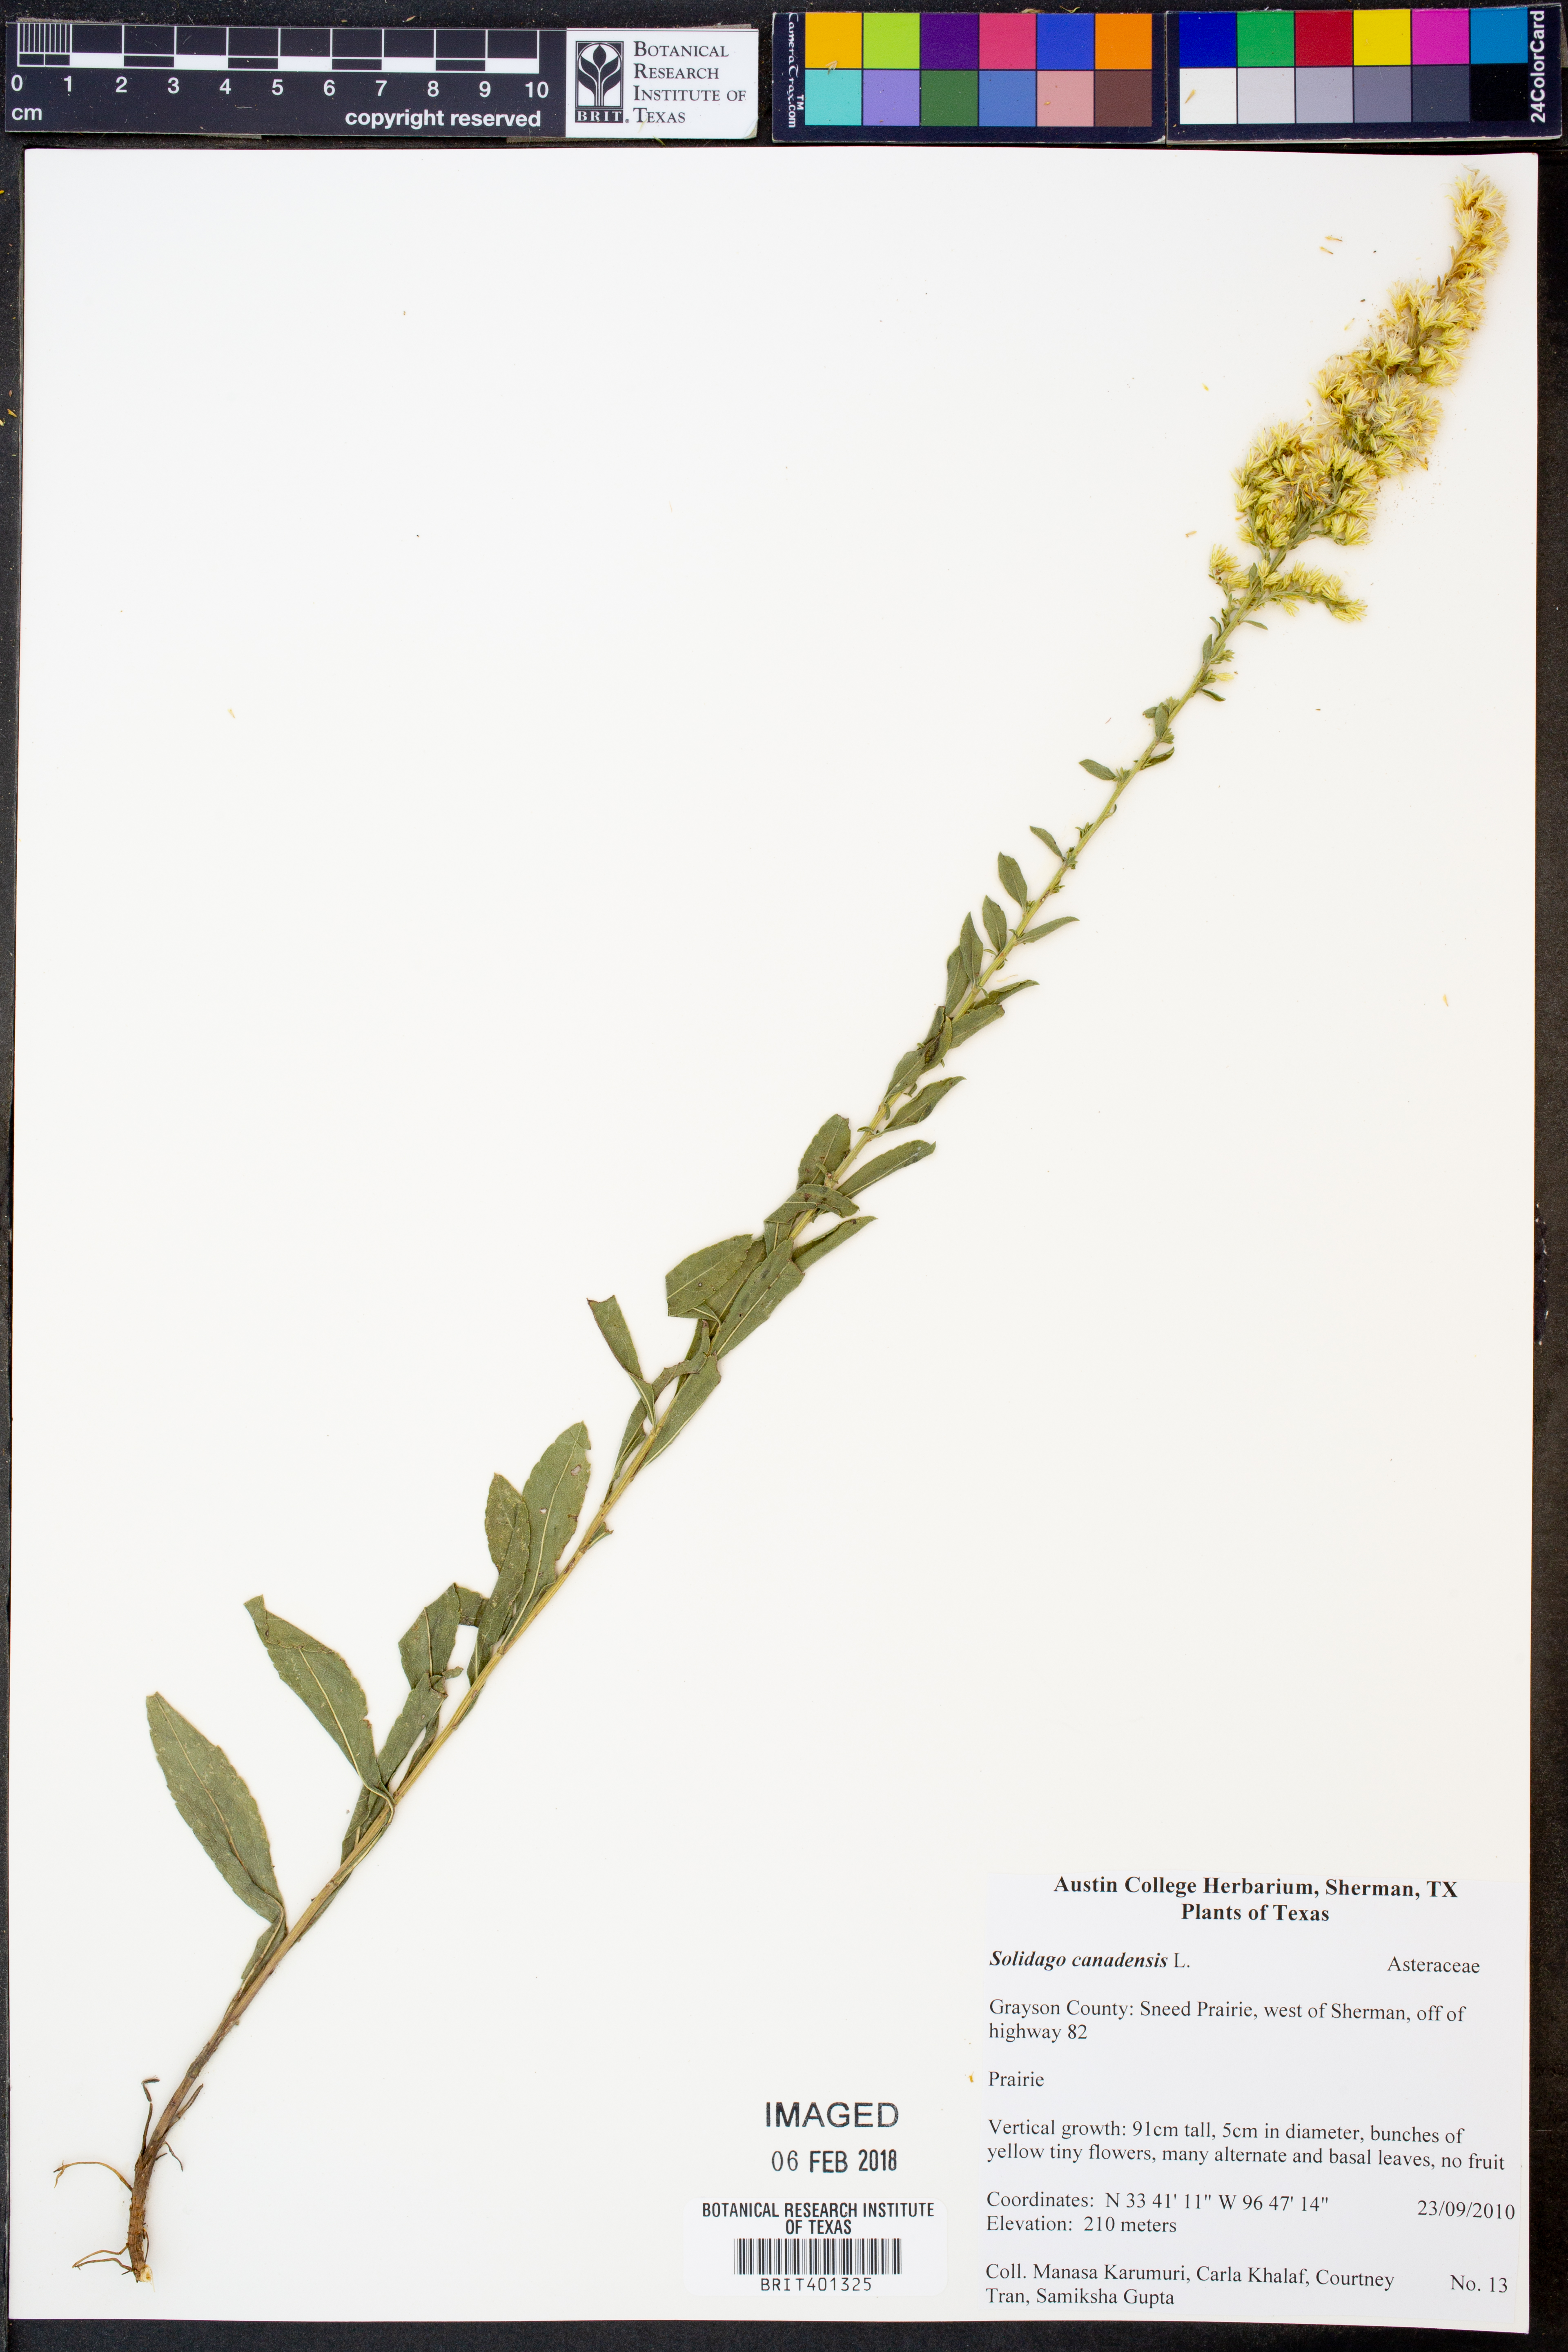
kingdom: Plantae
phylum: Tracheophyta
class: Magnoliopsida
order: Asterales
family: Asteraceae
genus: Solidago
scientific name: Solidago canadensis
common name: Canada goldenrod
